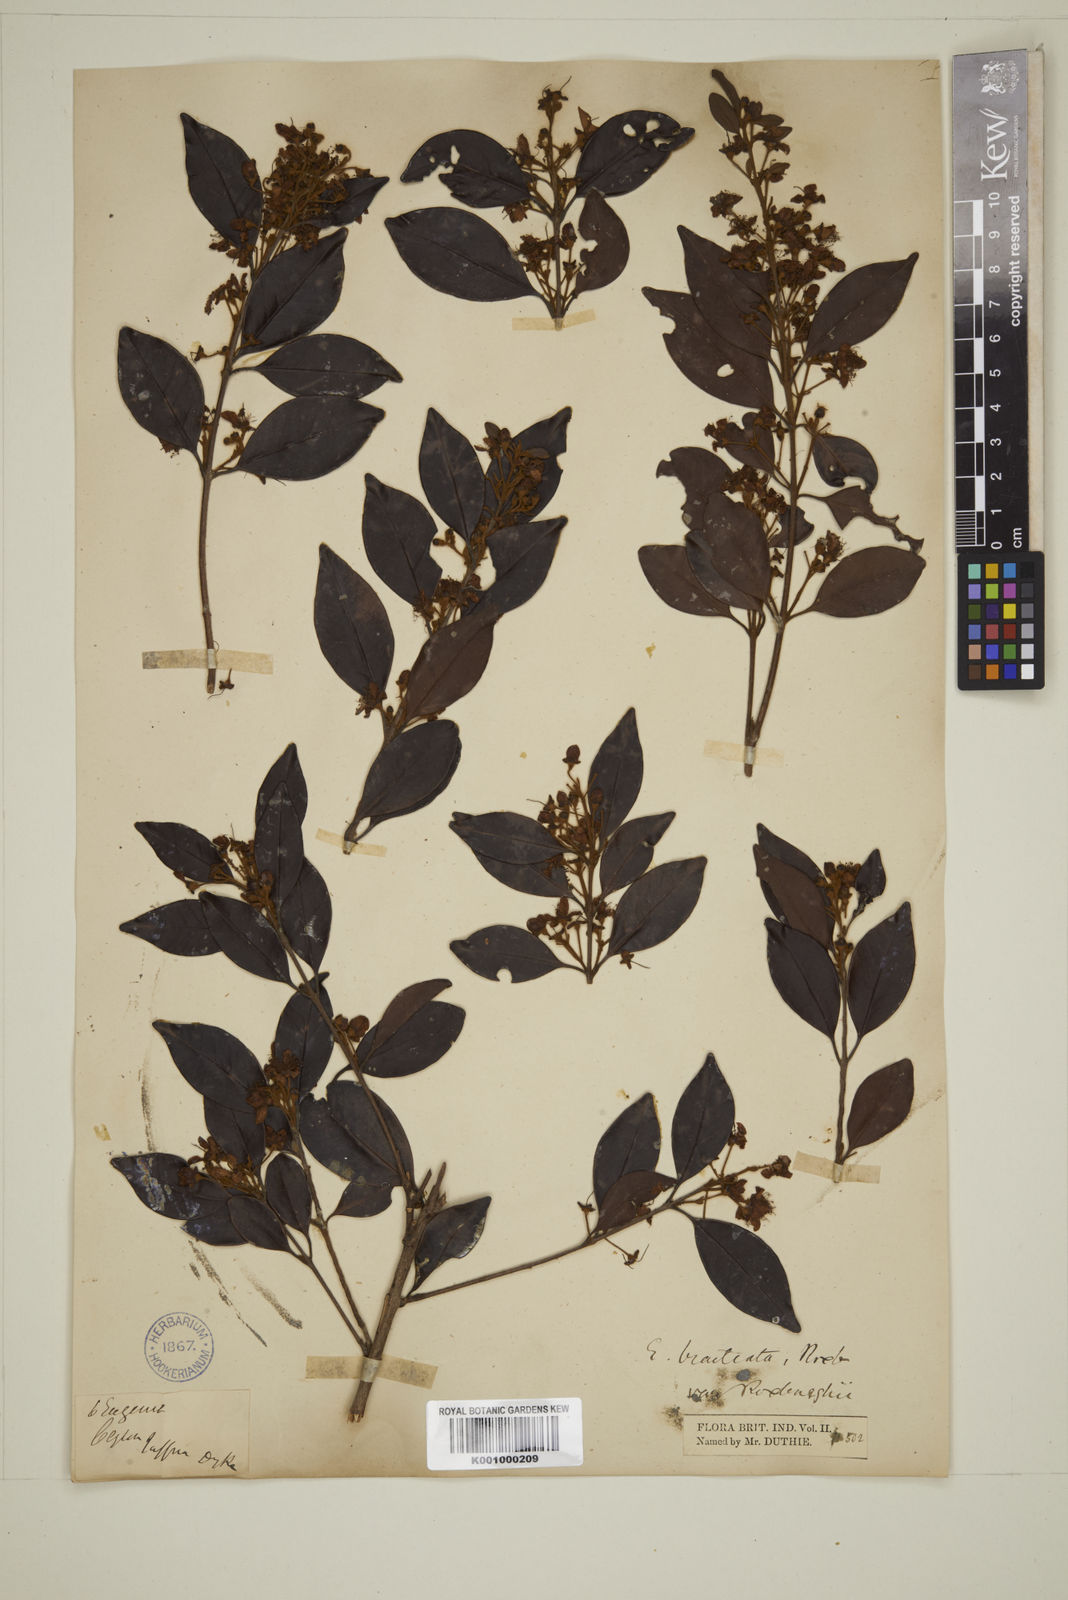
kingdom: Plantae
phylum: Tracheophyta
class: Magnoliopsida
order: Myrtales
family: Myrtaceae
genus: Eugenia
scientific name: Eugenia pseudopsidium
